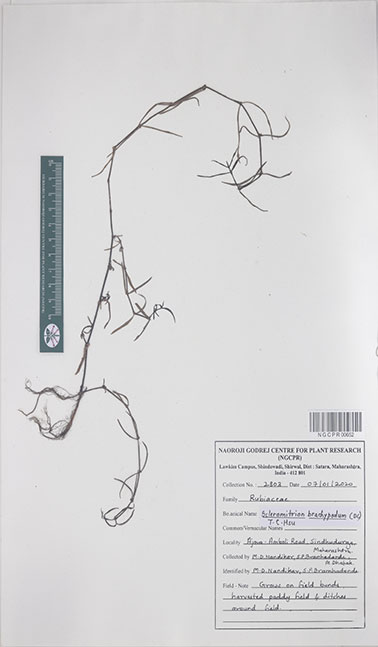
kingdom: Plantae
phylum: Tracheophyta
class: Magnoliopsida
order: Gentianales
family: Rubiaceae
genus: Scleromitrion
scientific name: Scleromitrion brachypodum
